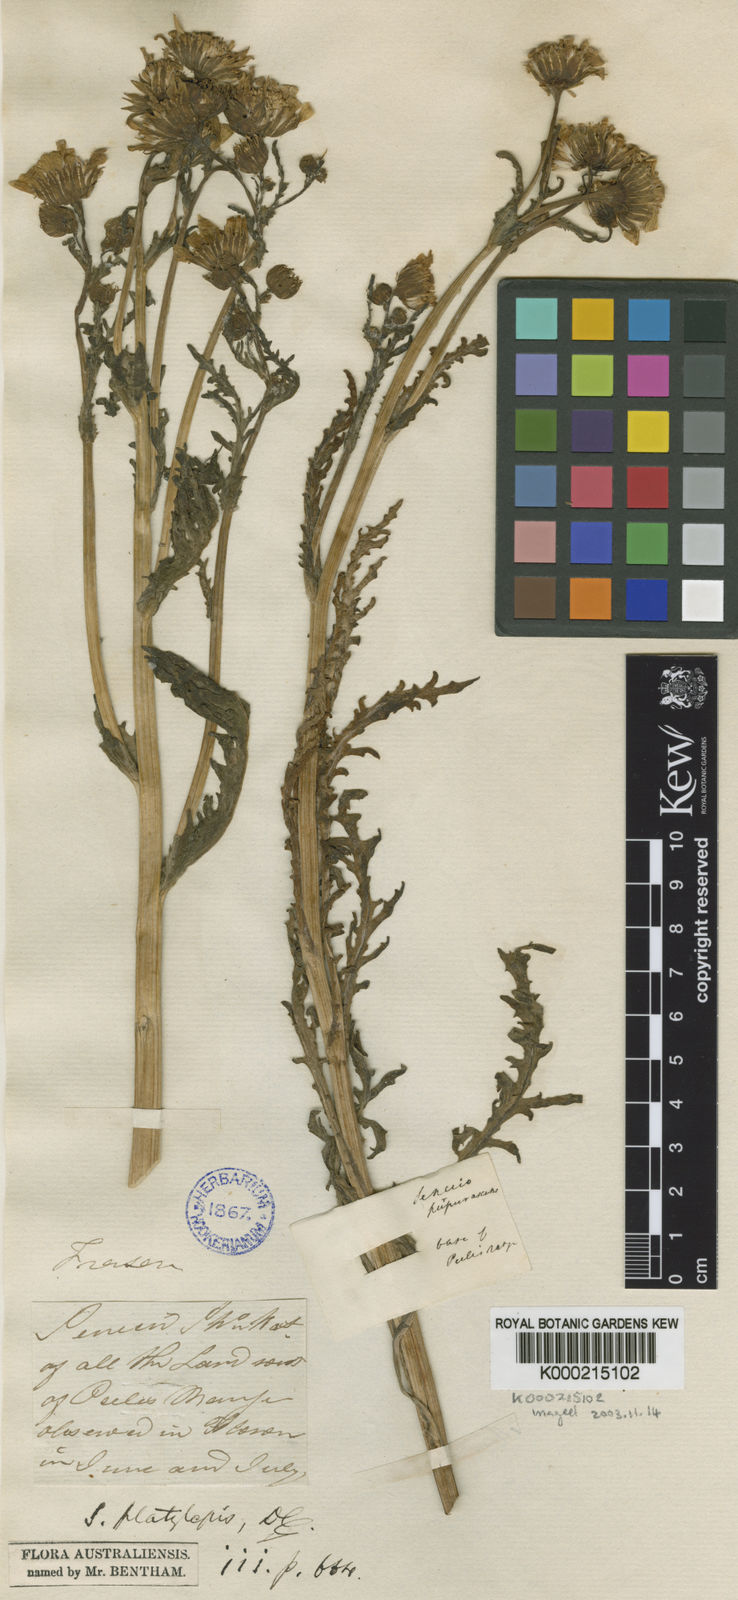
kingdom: Plantae
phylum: Tracheophyta
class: Magnoliopsida
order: Asterales
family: Asteraceae
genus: Senecio
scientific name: Senecio platylepis
